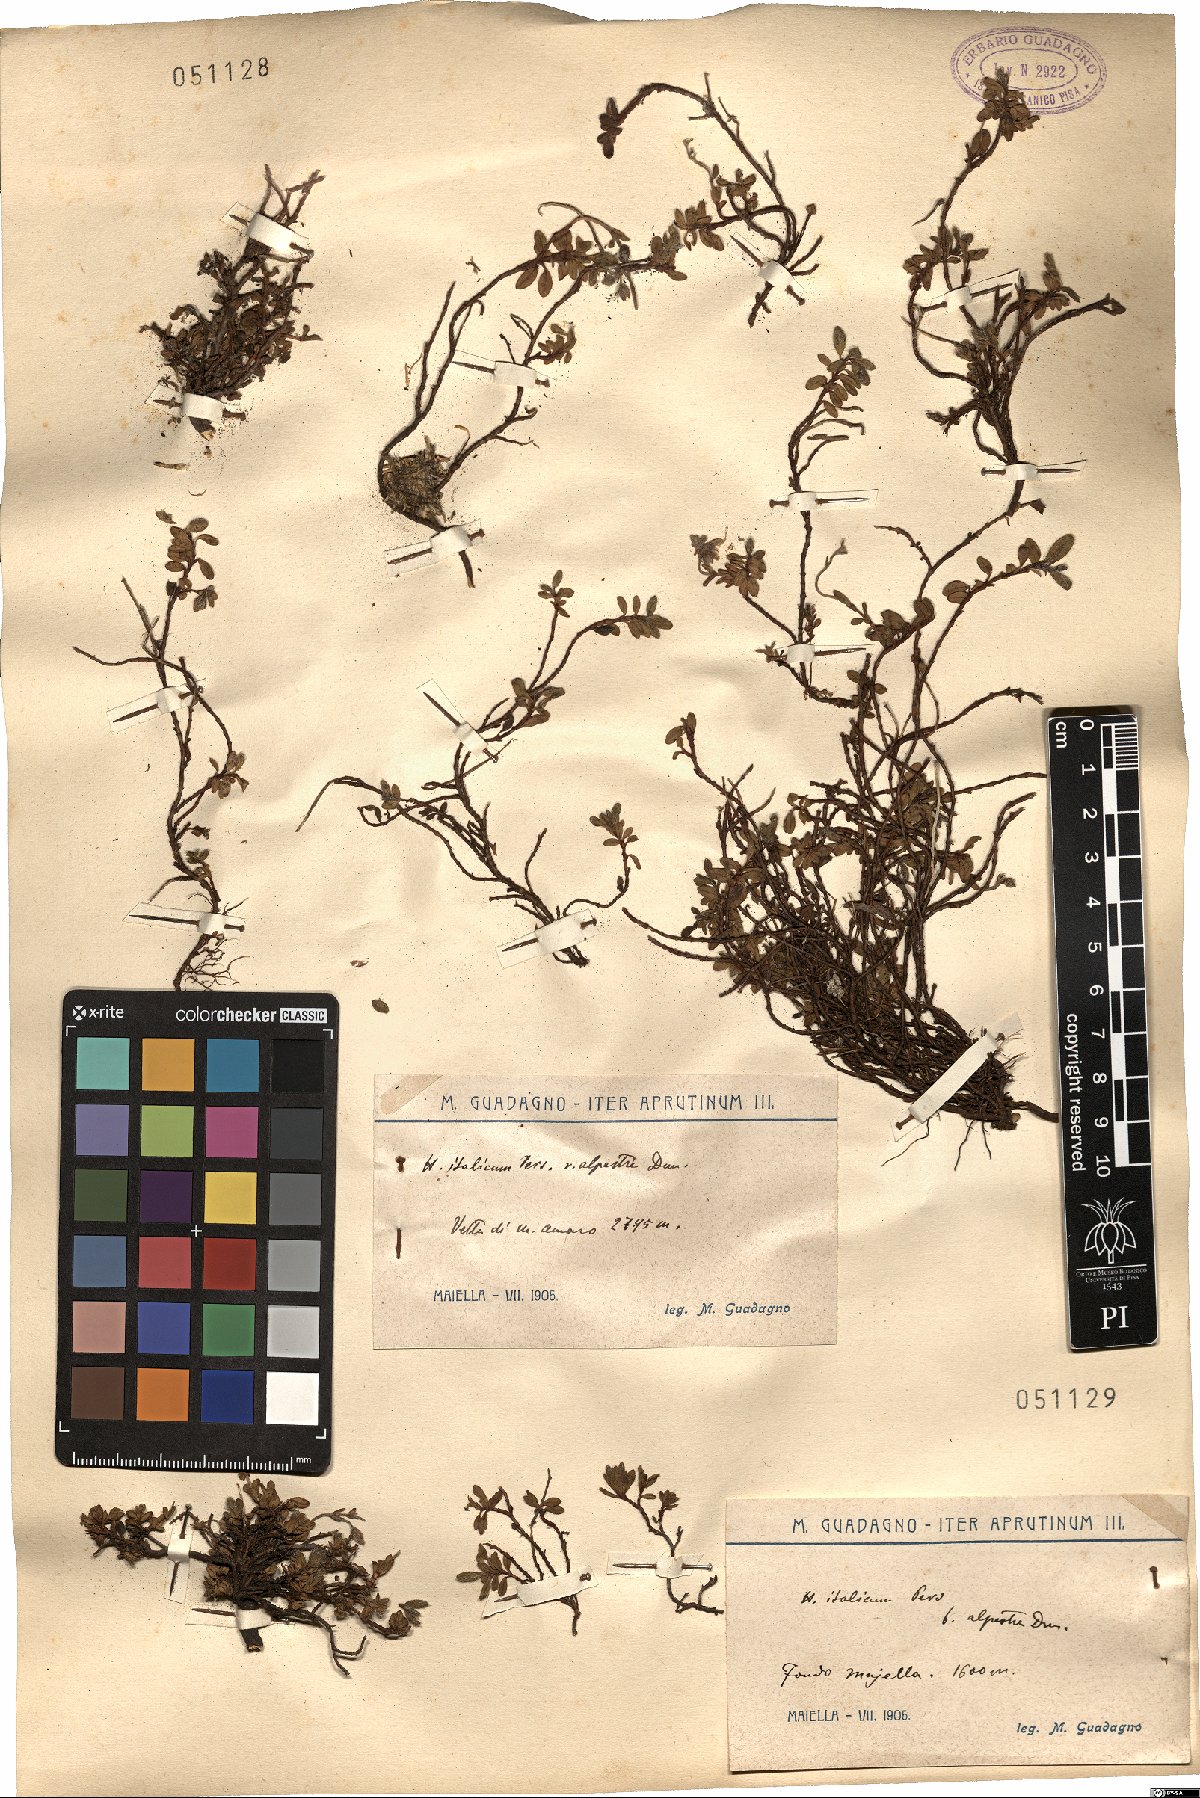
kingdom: Plantae
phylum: Tracheophyta
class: Magnoliopsida
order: Malvales
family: Cistaceae
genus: Helianthemum
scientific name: Helianthemum alpestre
